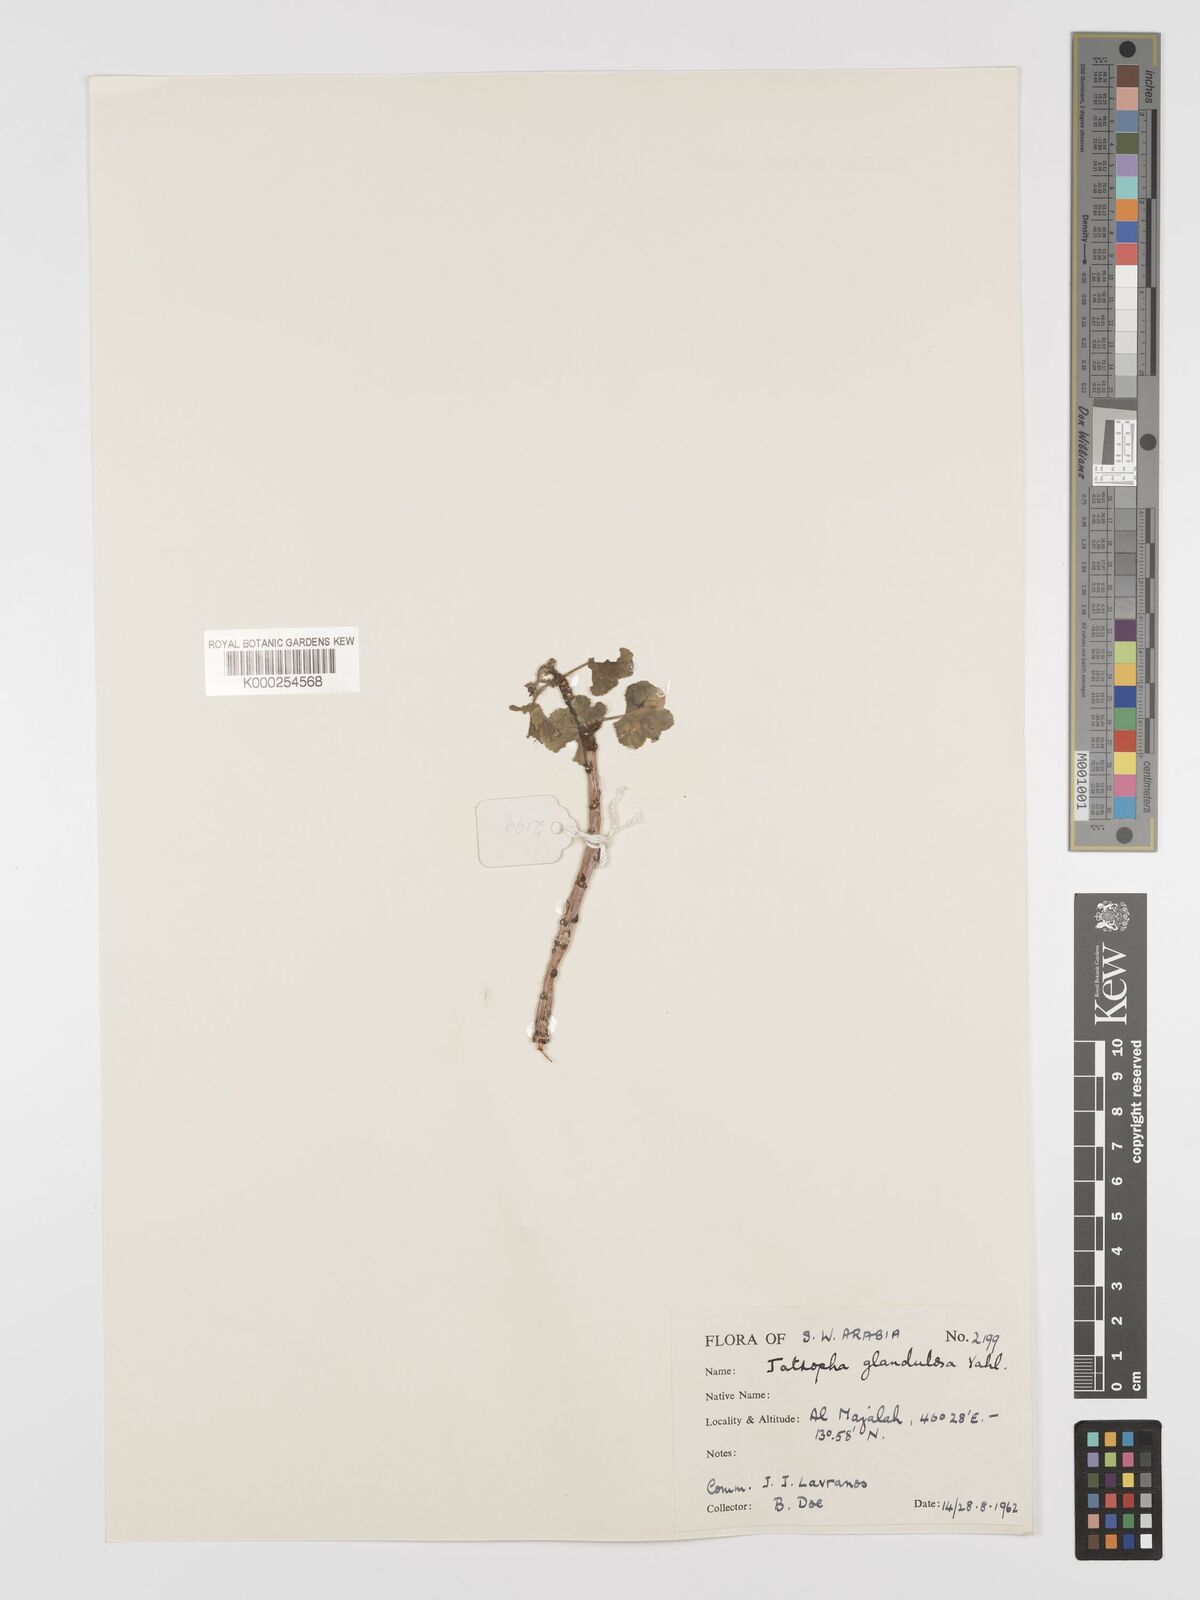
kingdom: Plantae
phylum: Tracheophyta
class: Magnoliopsida
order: Malpighiales
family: Euphorbiaceae
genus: Jatropha
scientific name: Jatropha pelargoniifolia
